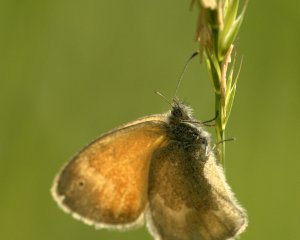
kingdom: Animalia
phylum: Arthropoda
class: Insecta
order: Lepidoptera
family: Nymphalidae
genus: Coenonympha
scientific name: Coenonympha tullia
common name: Large Heath
